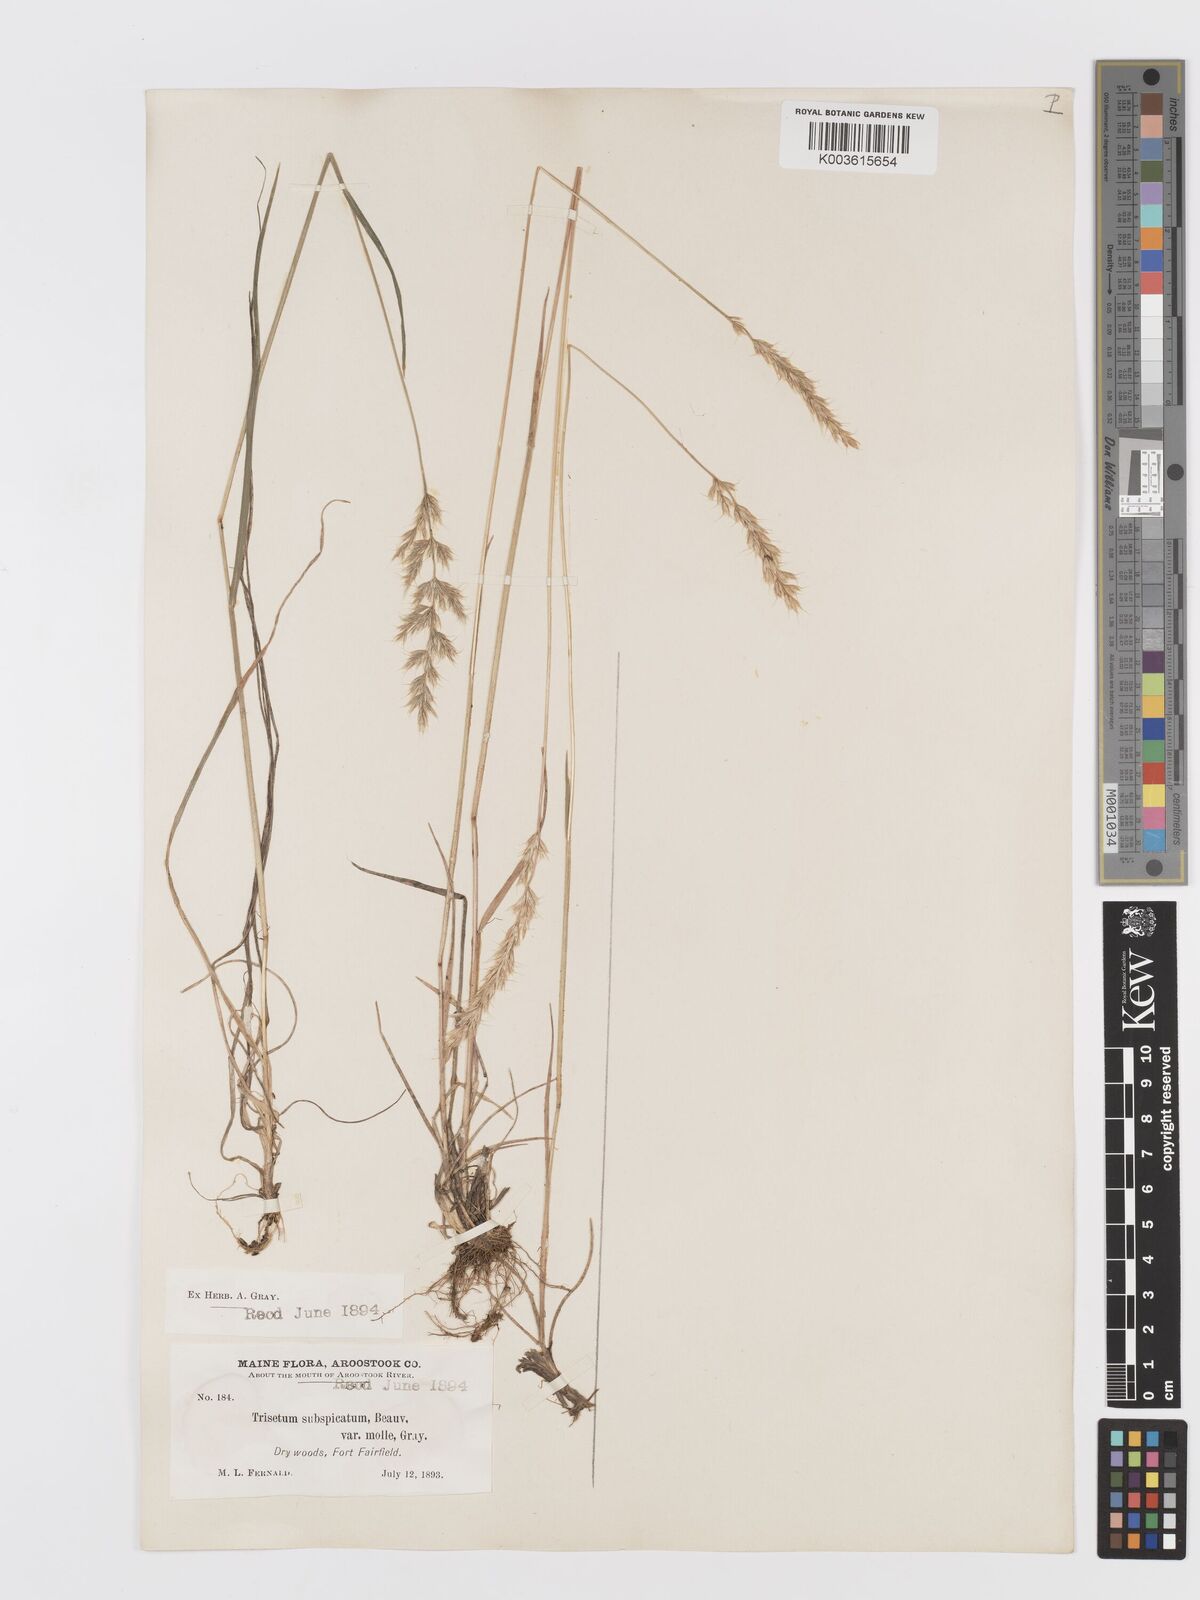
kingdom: Plantae
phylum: Tracheophyta
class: Liliopsida
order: Poales
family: Poaceae
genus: Koeleria
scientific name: Koeleria spicata
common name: Mountain trisetum
